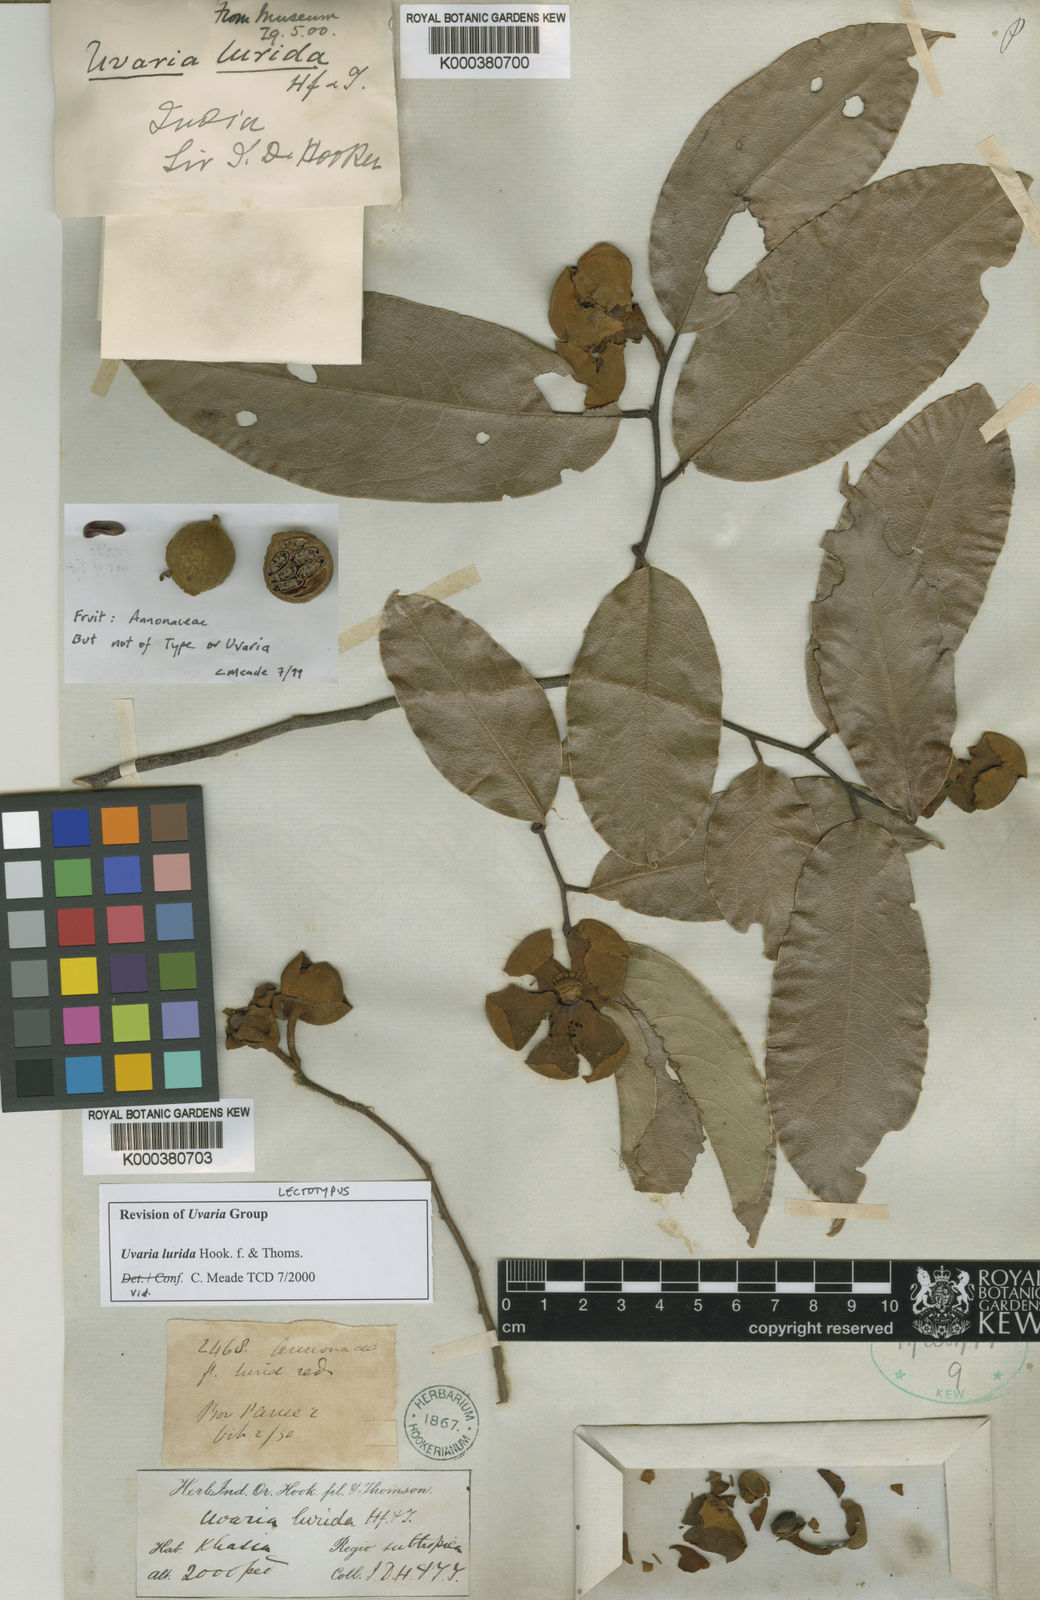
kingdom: Plantae
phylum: Tracheophyta
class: Magnoliopsida
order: Magnoliales
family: Annonaceae
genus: Uvaria
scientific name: Uvaria concava
